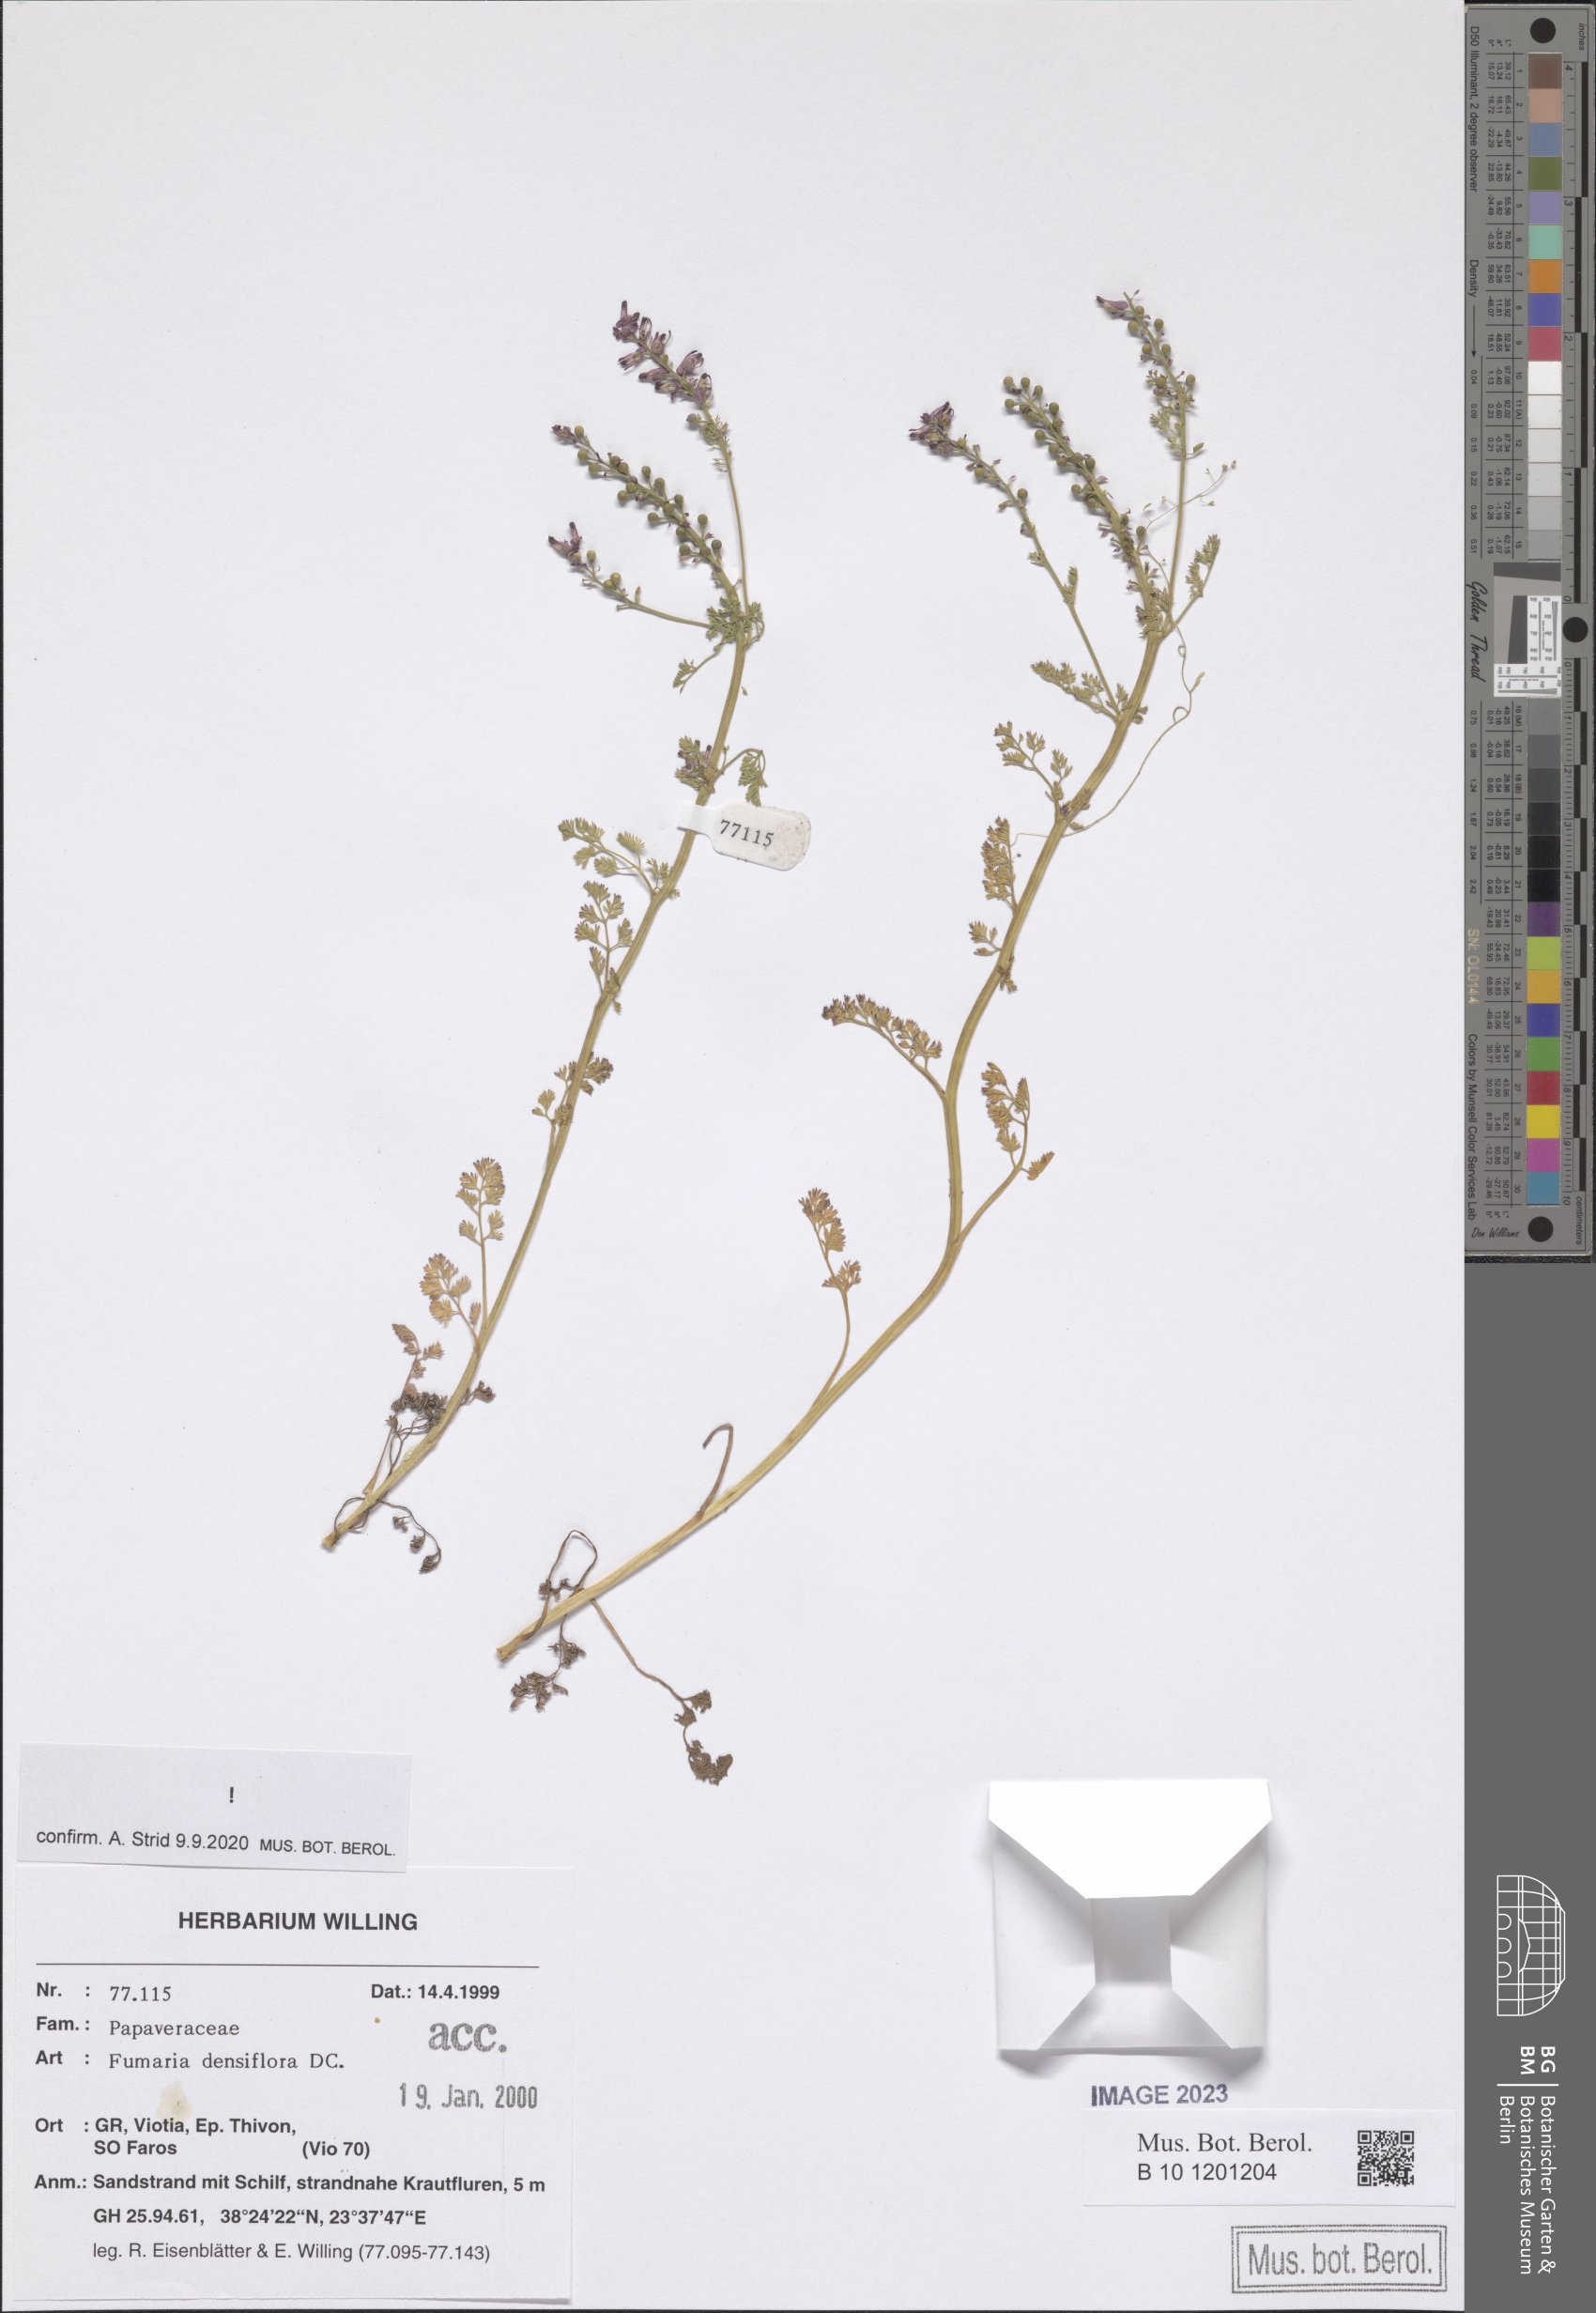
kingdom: Plantae
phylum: Tracheophyta
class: Magnoliopsida
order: Ranunculales
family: Papaveraceae
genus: Fumaria
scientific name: Fumaria densiflora
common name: Dense-flowered fumitory
